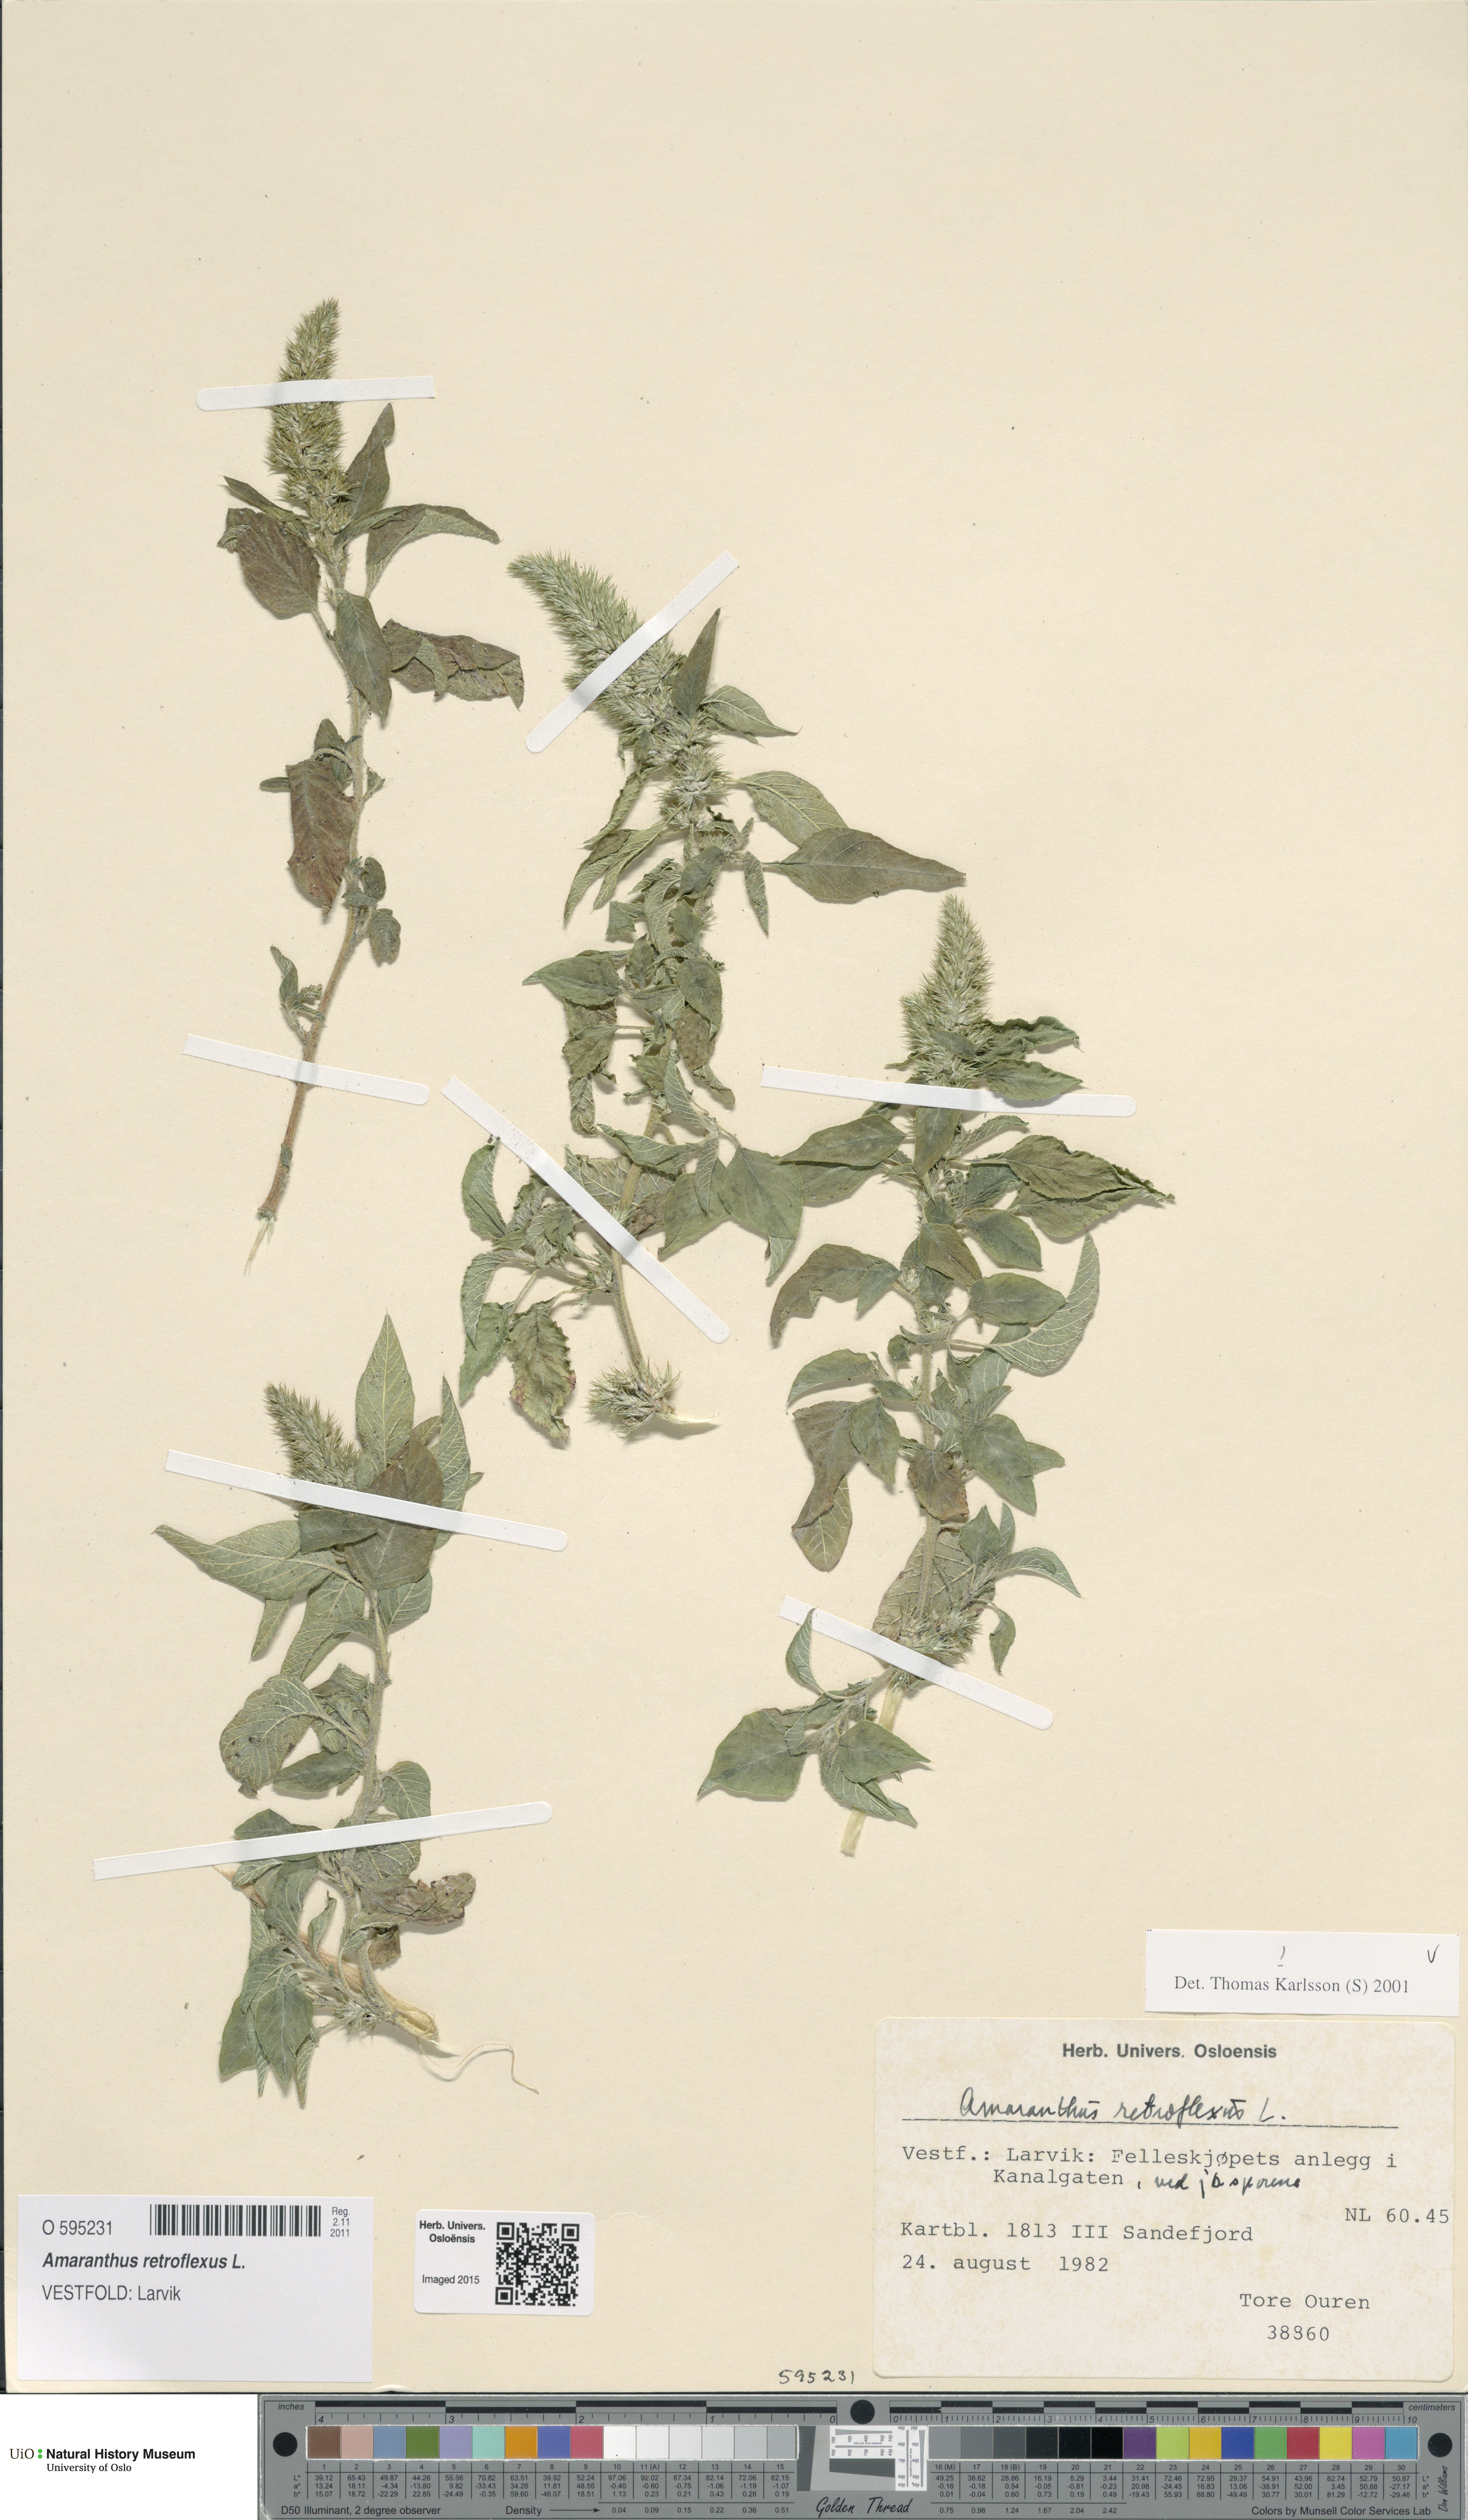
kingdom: Plantae
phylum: Tracheophyta
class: Magnoliopsida
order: Caryophyllales
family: Amaranthaceae
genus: Amaranthus
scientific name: Amaranthus retroflexus
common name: Redroot amaranth
